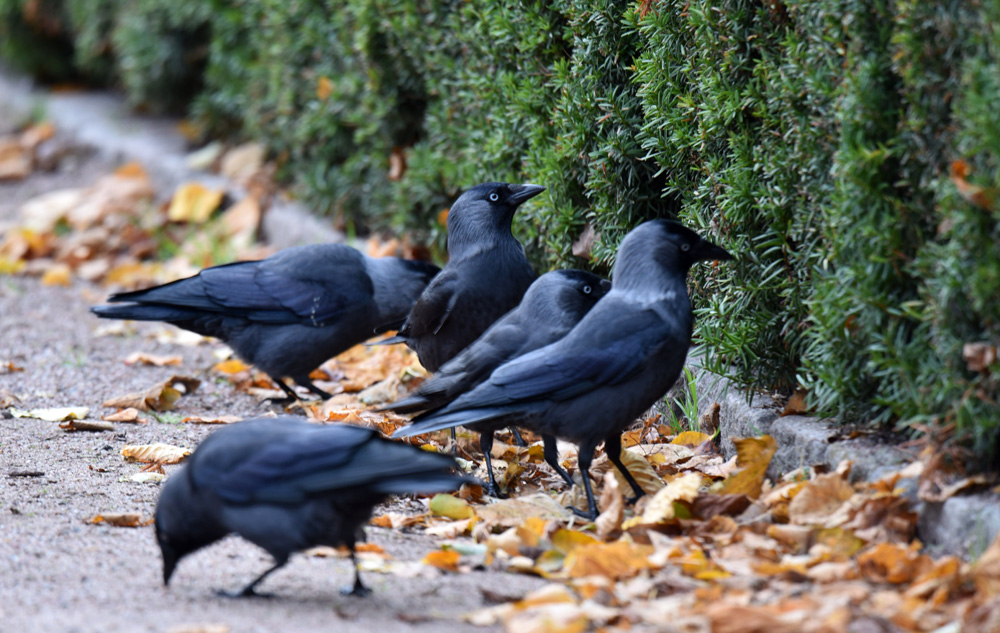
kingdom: Animalia
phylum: Chordata
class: Aves
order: Passeriformes
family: Corvidae
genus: Coloeus
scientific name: Coloeus monedula
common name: Western jackdaw
